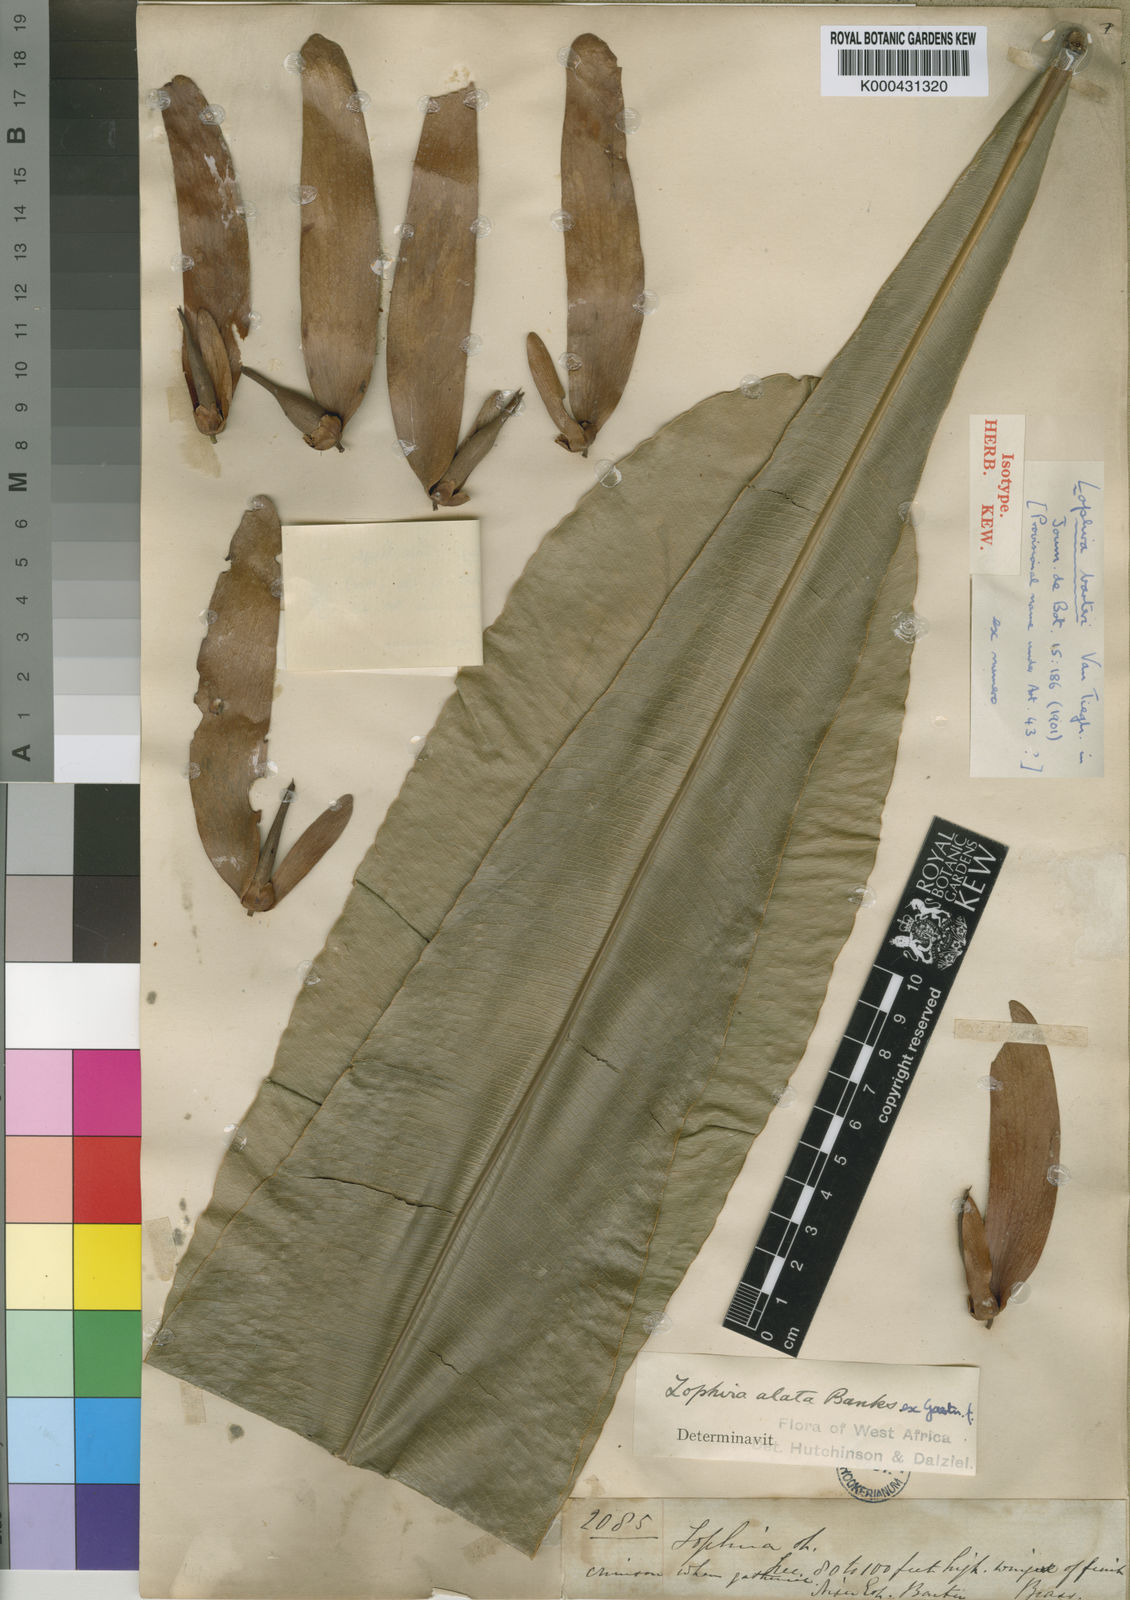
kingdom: Plantae
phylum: Tracheophyta
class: Magnoliopsida
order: Malpighiales
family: Ochnaceae
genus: Lophira
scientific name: Lophira alata
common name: Azobe
